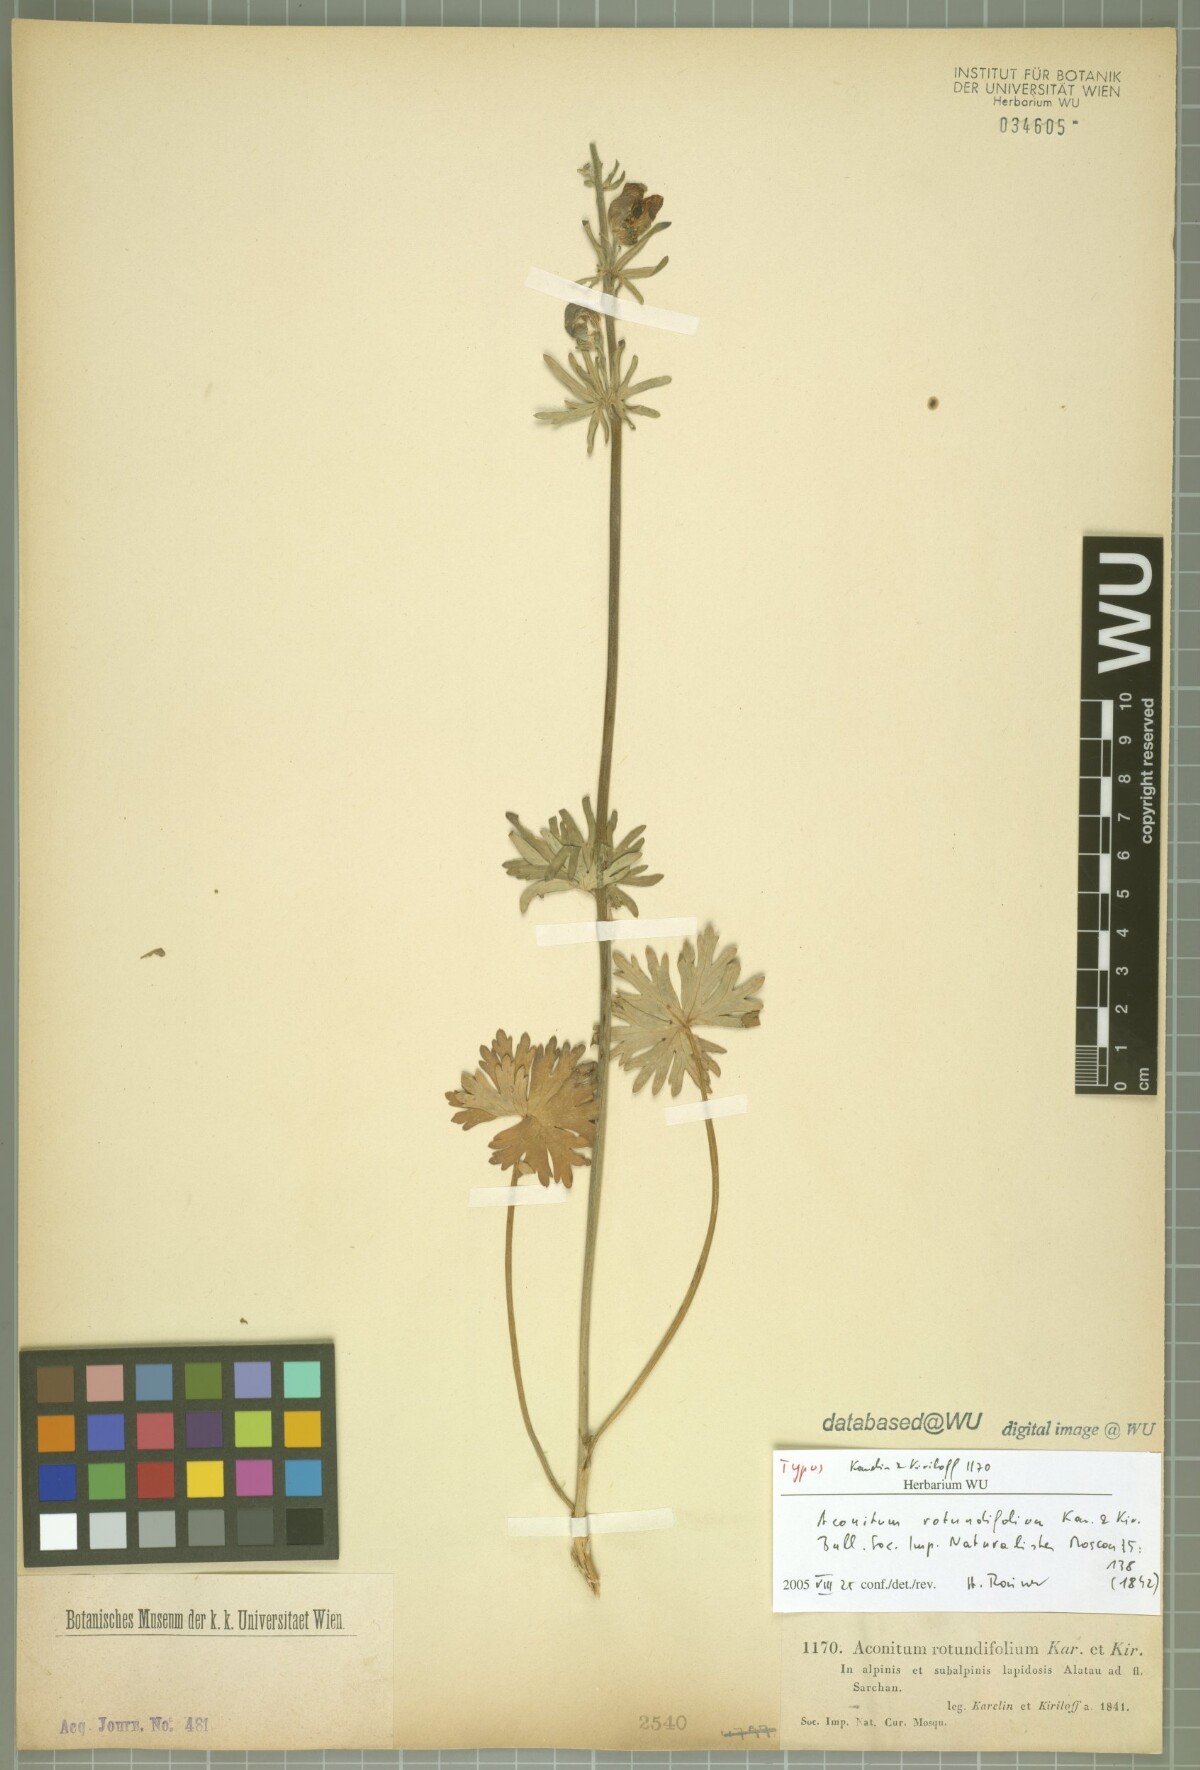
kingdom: Plantae
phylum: Tracheophyta
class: Magnoliopsida
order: Ranunculales
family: Ranunculaceae
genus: Aconitum
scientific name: Aconitum rotundifolium
